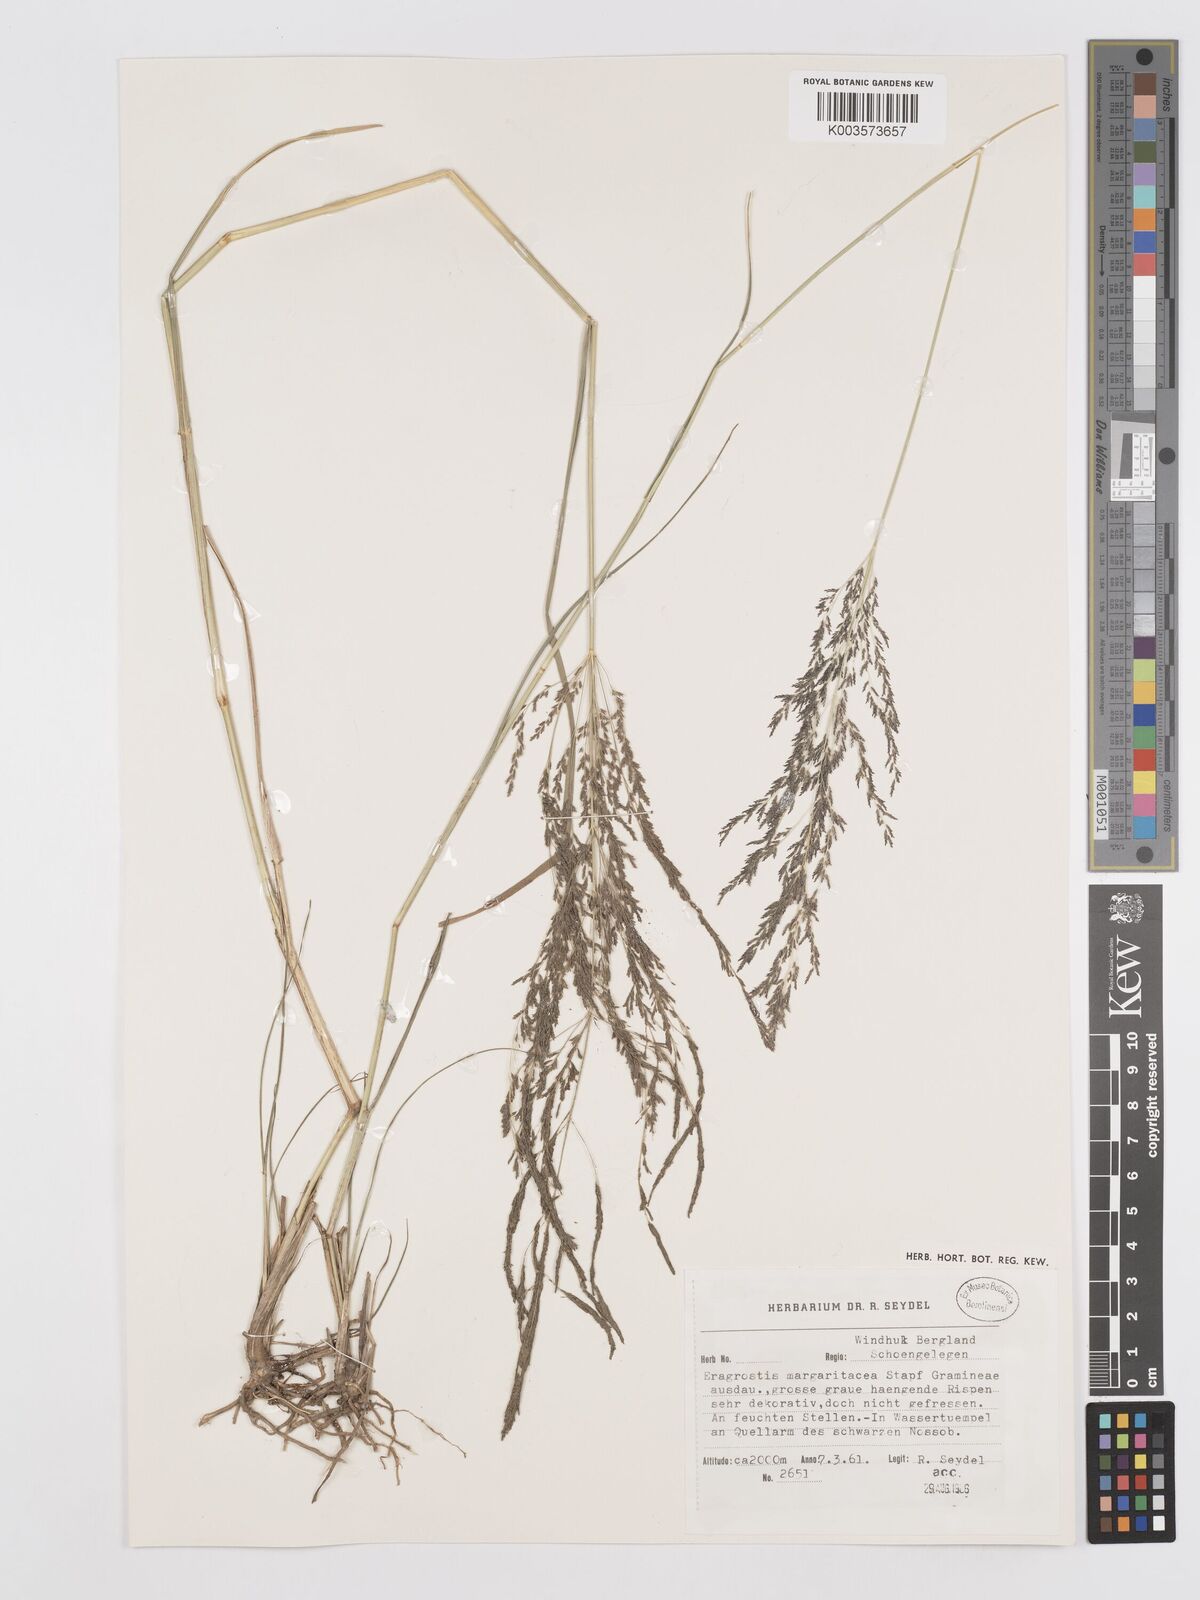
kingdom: Plantae
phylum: Tracheophyta
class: Liliopsida
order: Poales
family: Poaceae
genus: Eragrostis
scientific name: Eragrostis rotifer
